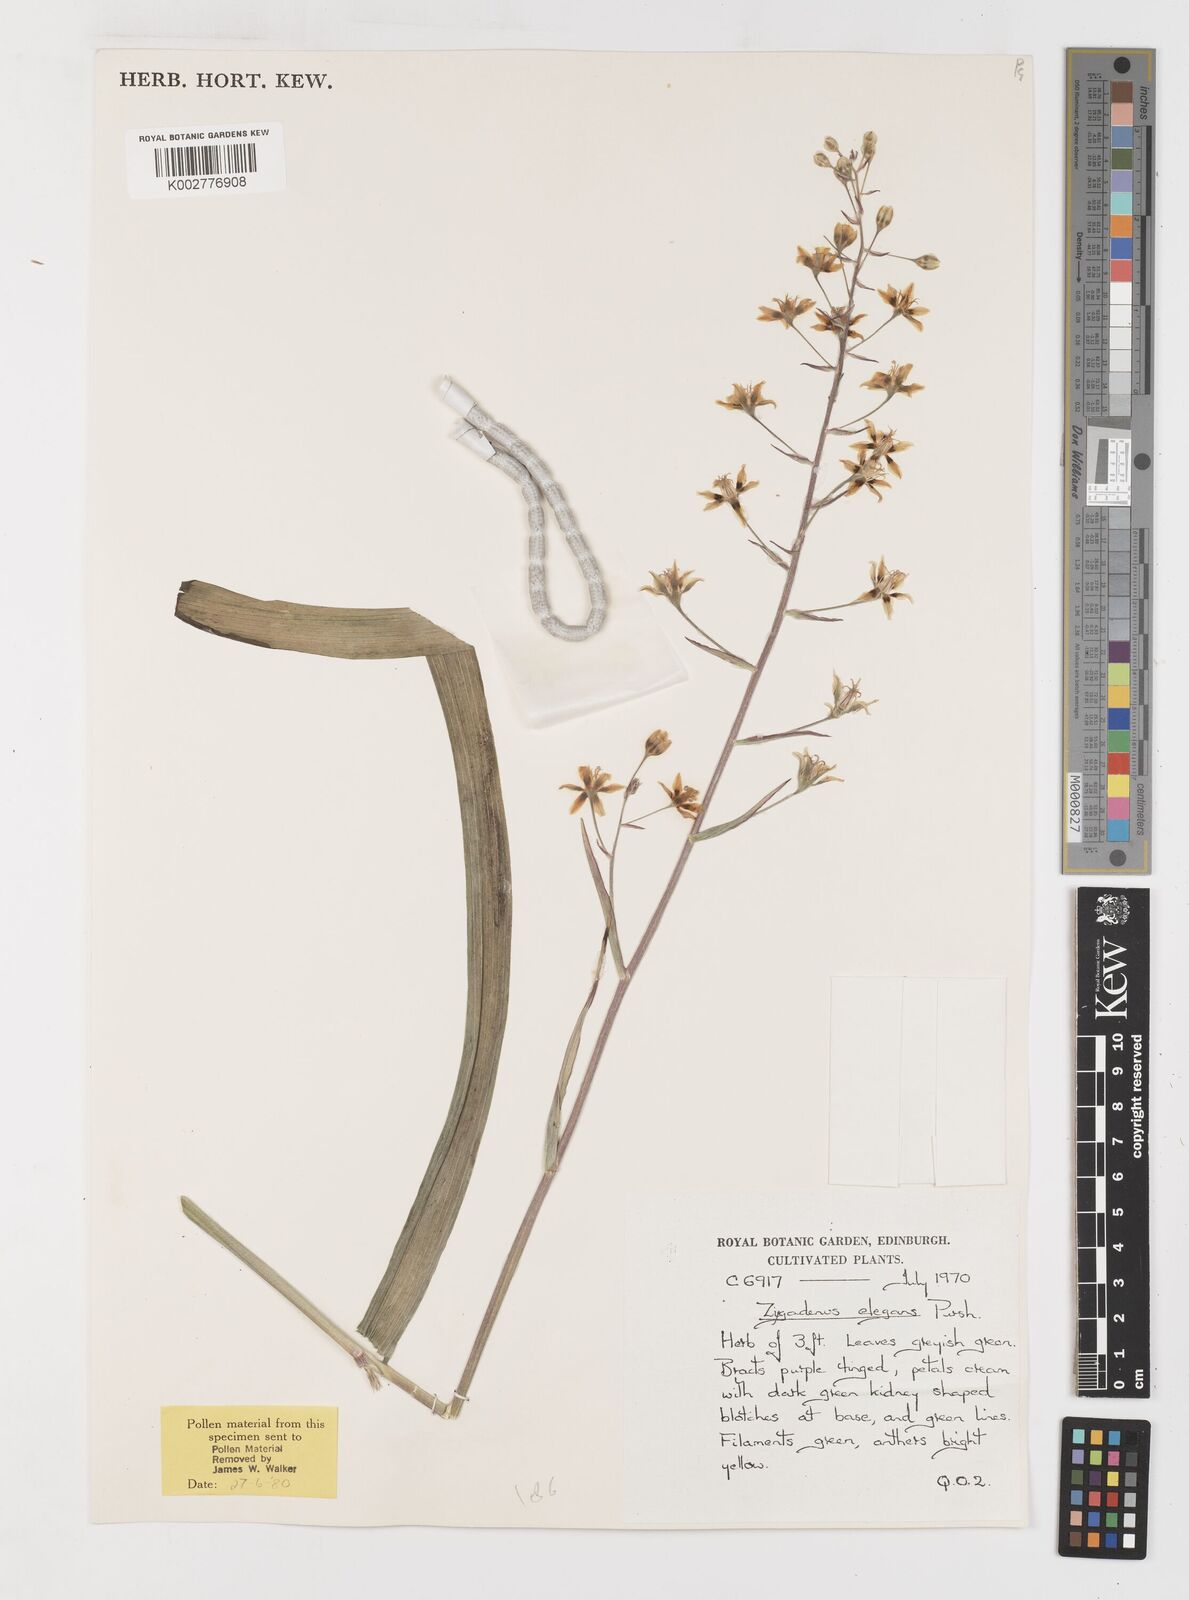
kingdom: Plantae
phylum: Tracheophyta
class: Liliopsida
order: Liliales
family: Melanthiaceae
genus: Anticlea
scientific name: Anticlea elegans
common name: Mountain death camas
